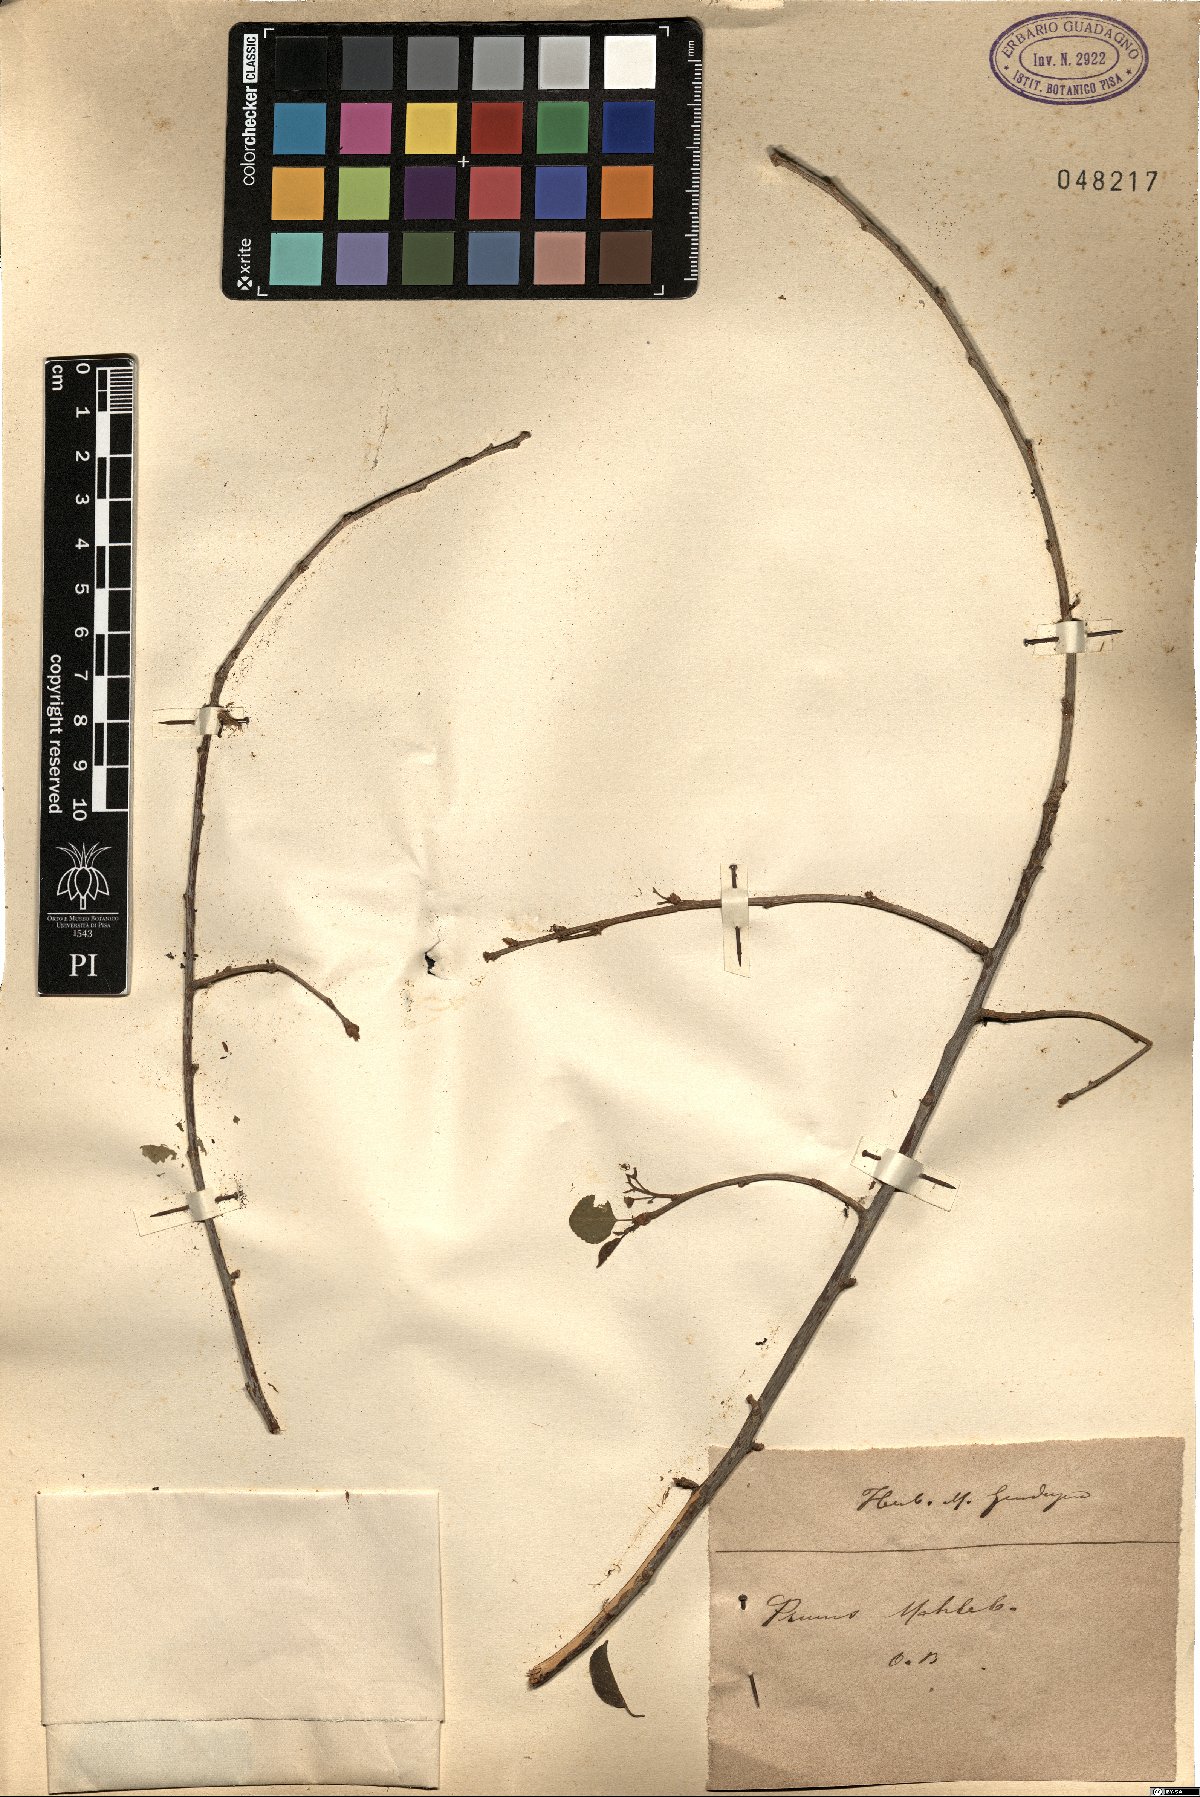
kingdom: Plantae
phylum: Tracheophyta
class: Magnoliopsida
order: Rosales
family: Rosaceae
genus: Prunus
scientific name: Prunus mahaleb
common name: Mahaleb cherry
